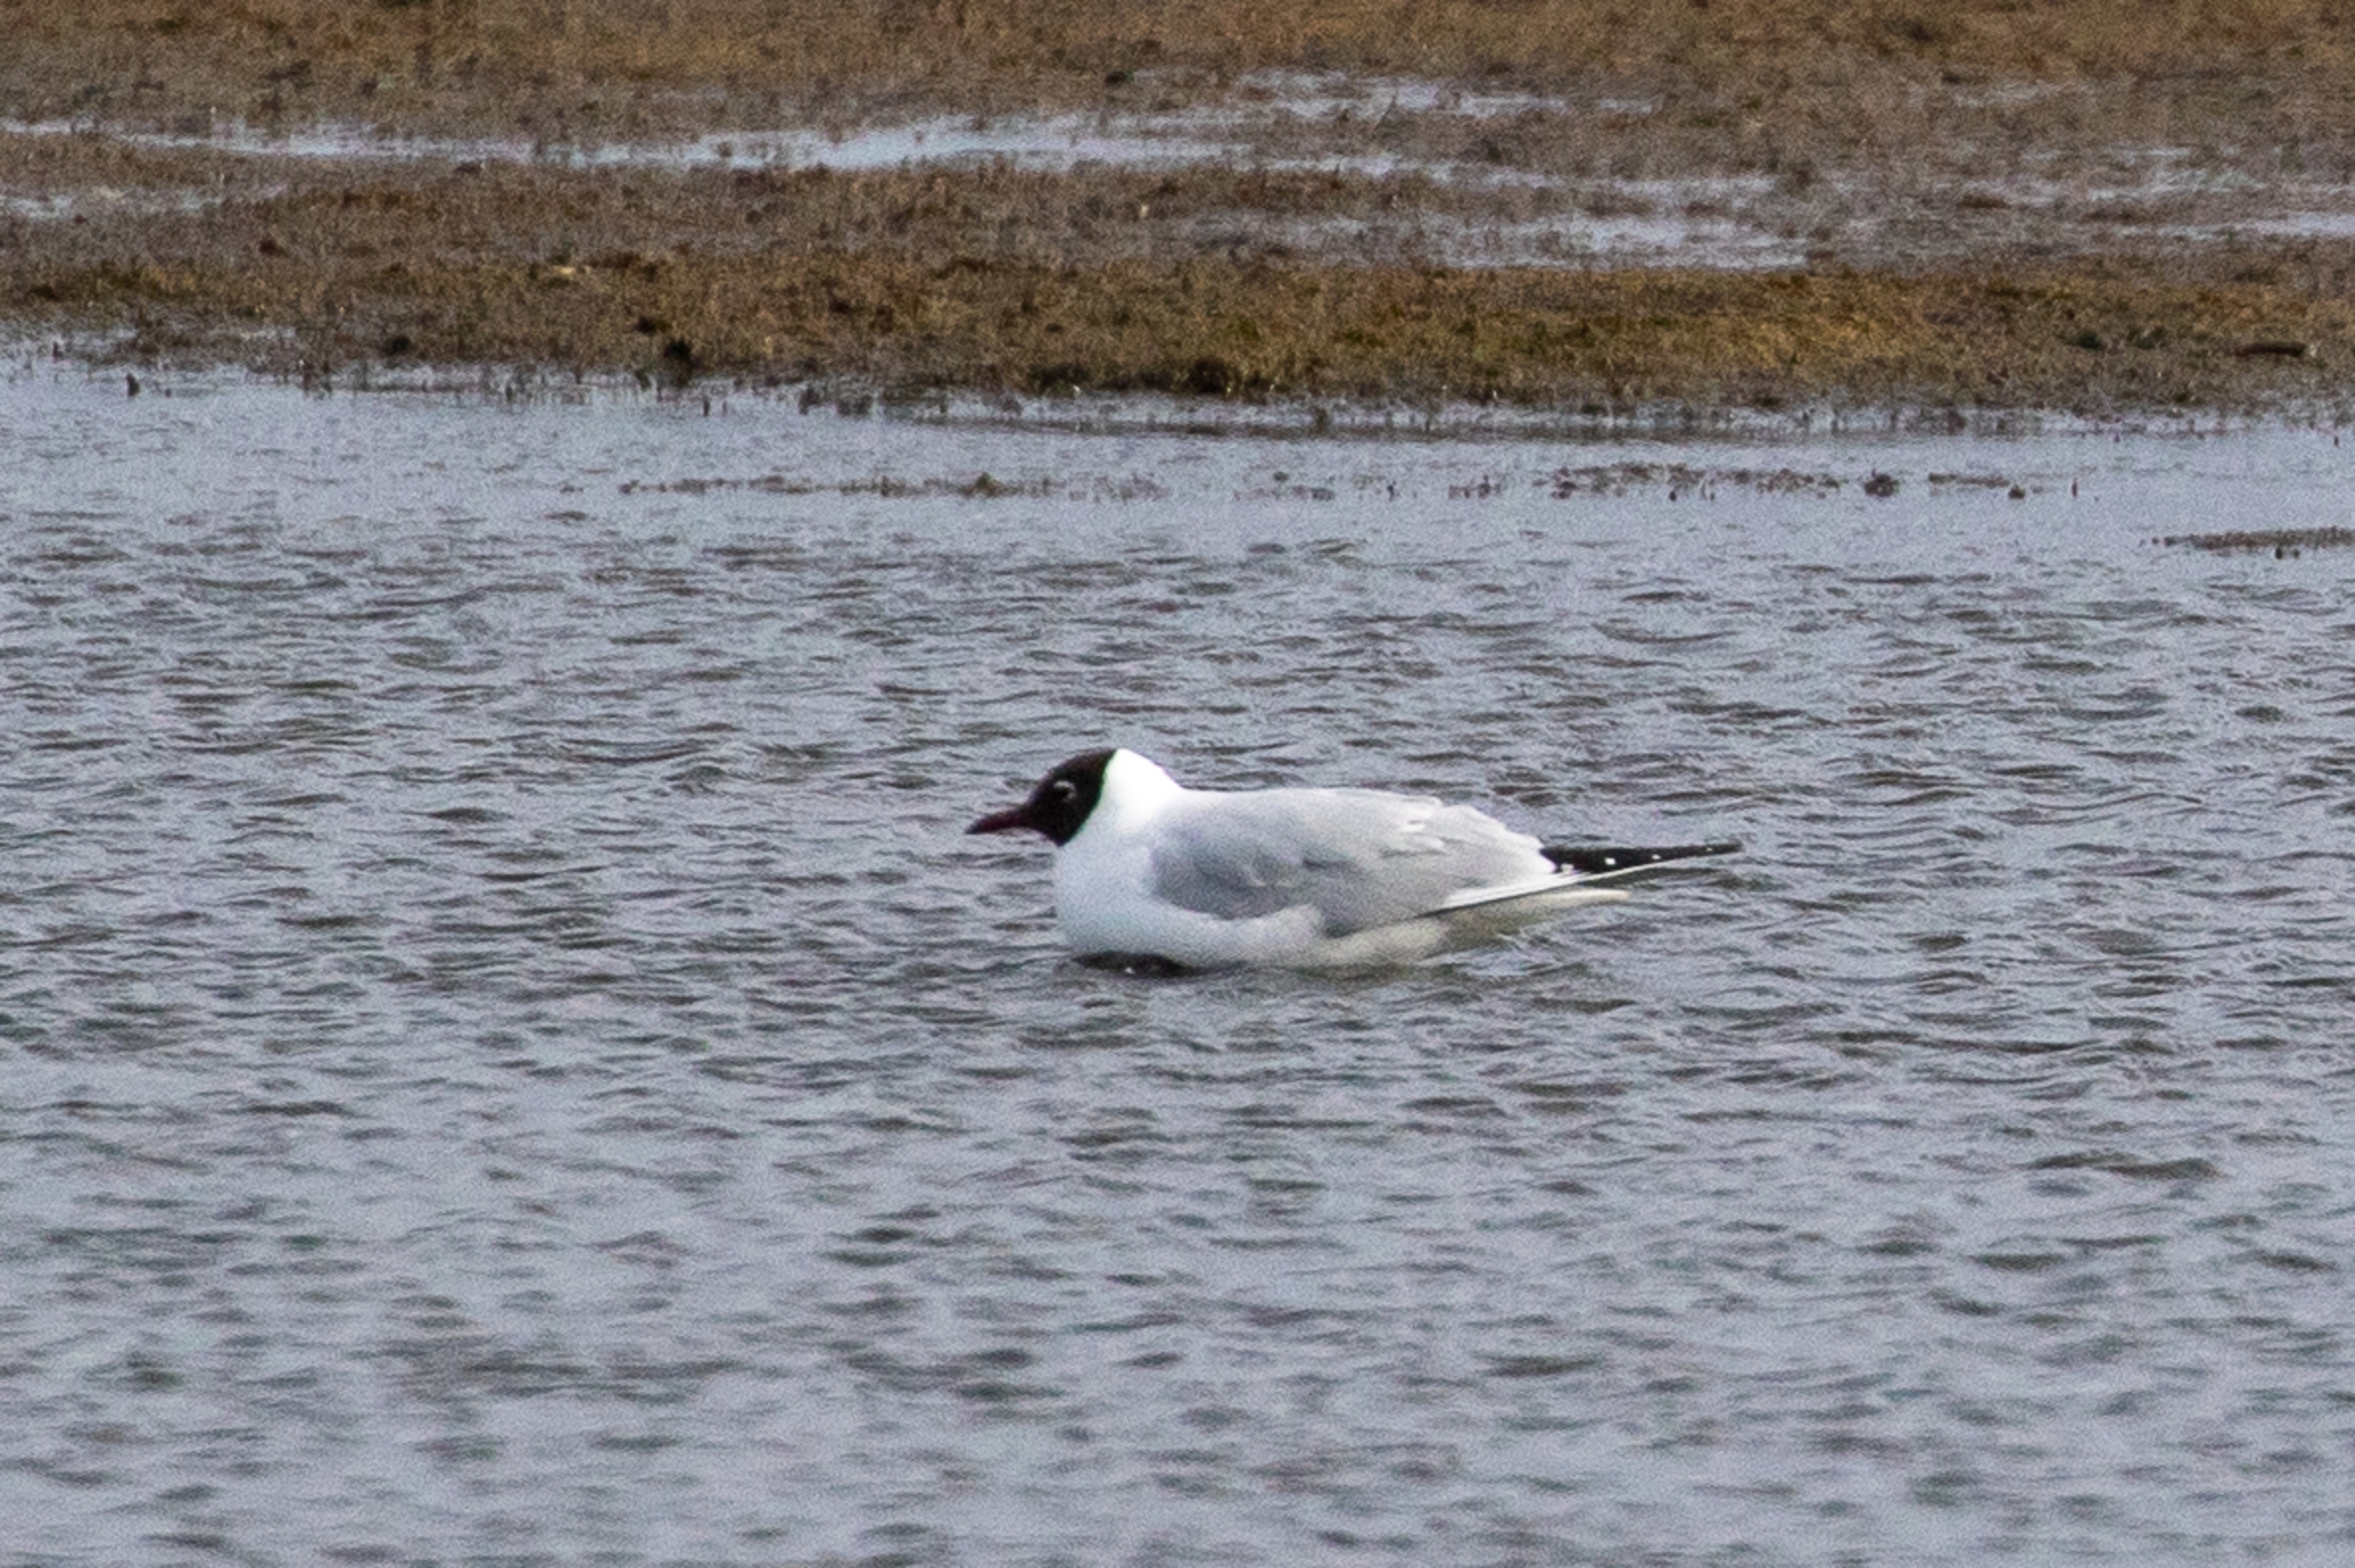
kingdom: Animalia
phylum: Chordata
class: Aves
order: Charadriiformes
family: Laridae
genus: Chroicocephalus
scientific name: Chroicocephalus ridibundus
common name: Hættemåge
